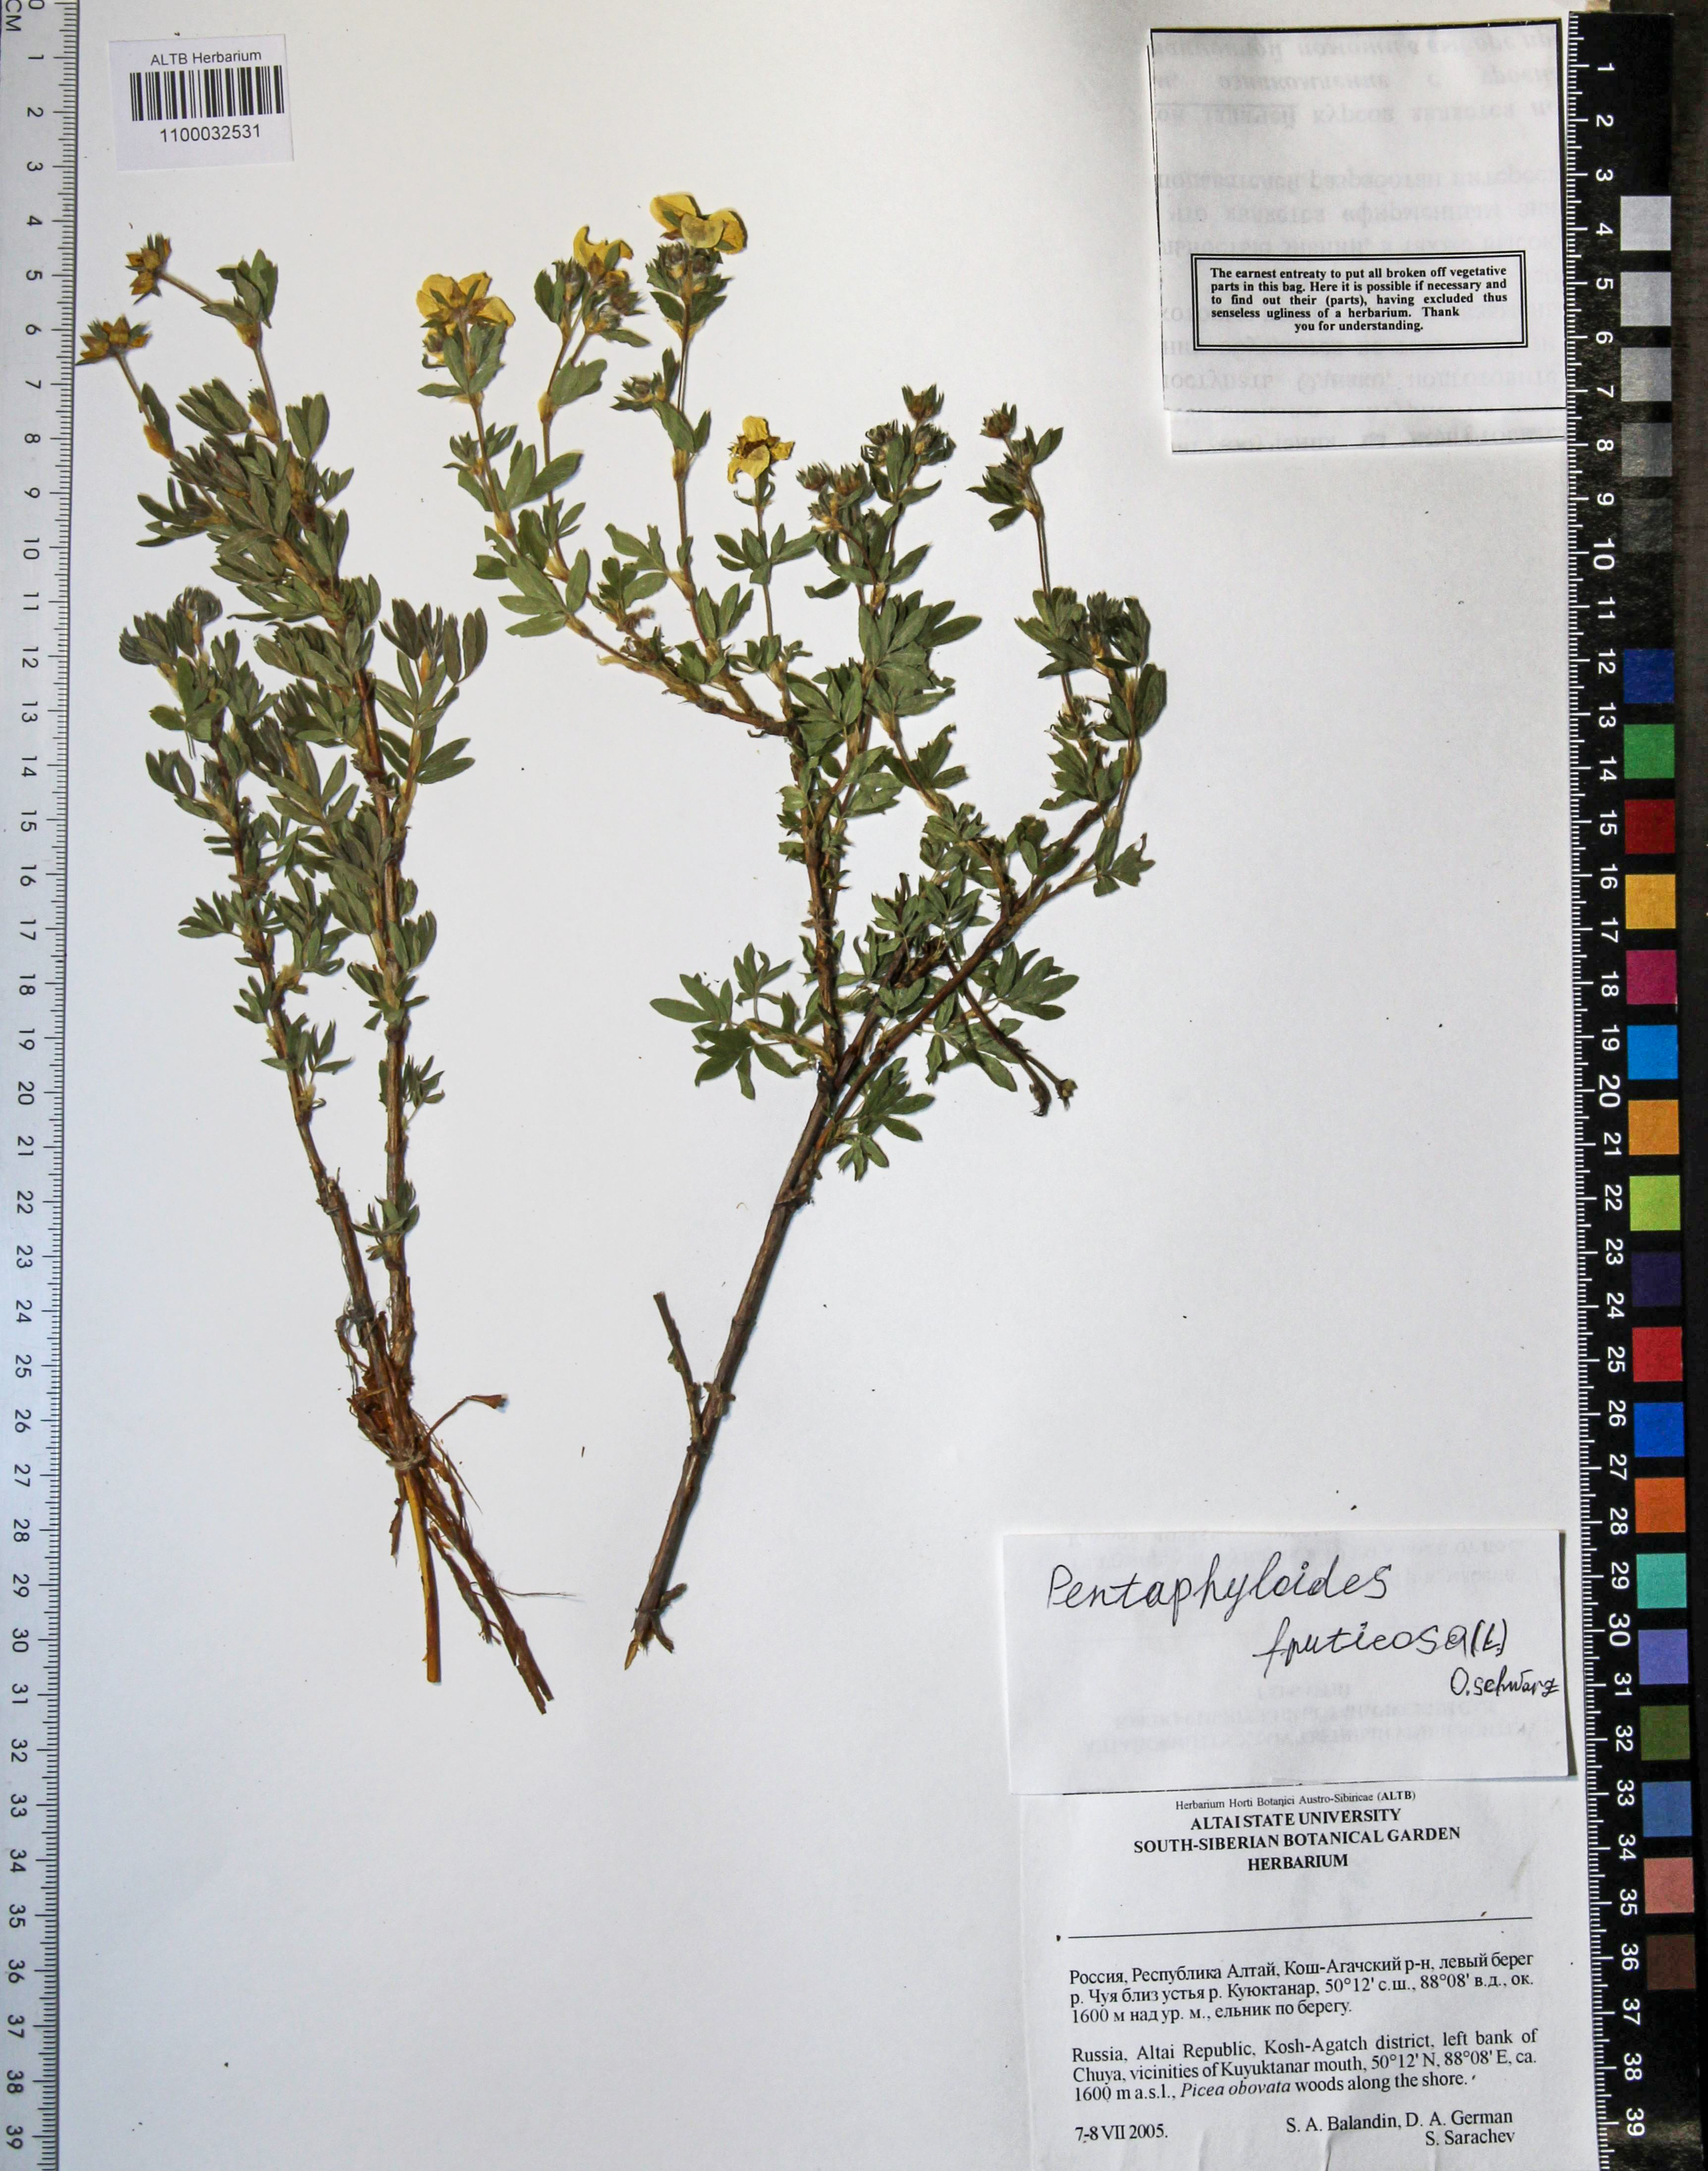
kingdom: Plantae
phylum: Tracheophyta
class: Magnoliopsida
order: Rosales
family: Rosaceae
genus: Dasiphora
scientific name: Dasiphora fruticosa
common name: Shrubby cinquefoil
